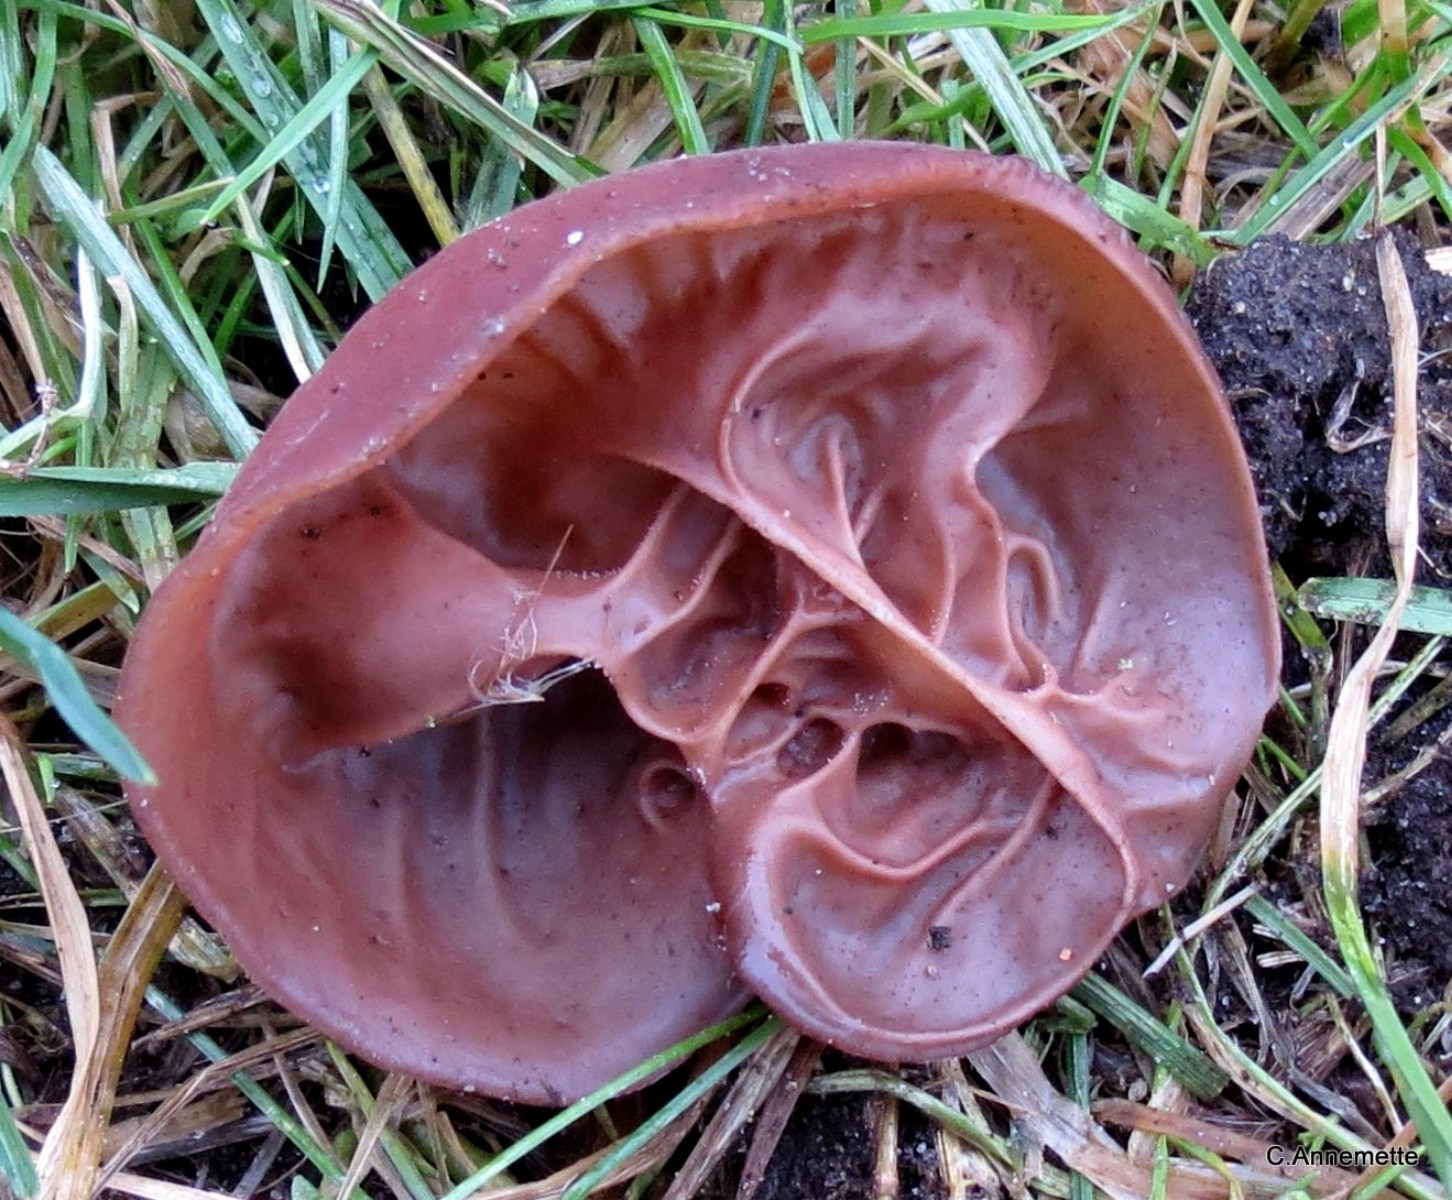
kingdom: Fungi
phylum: Basidiomycota
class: Agaricomycetes
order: Auriculariales
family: Auriculariaceae
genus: Auricularia
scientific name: Auricularia auricula-judae
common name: almindelig judasøre
